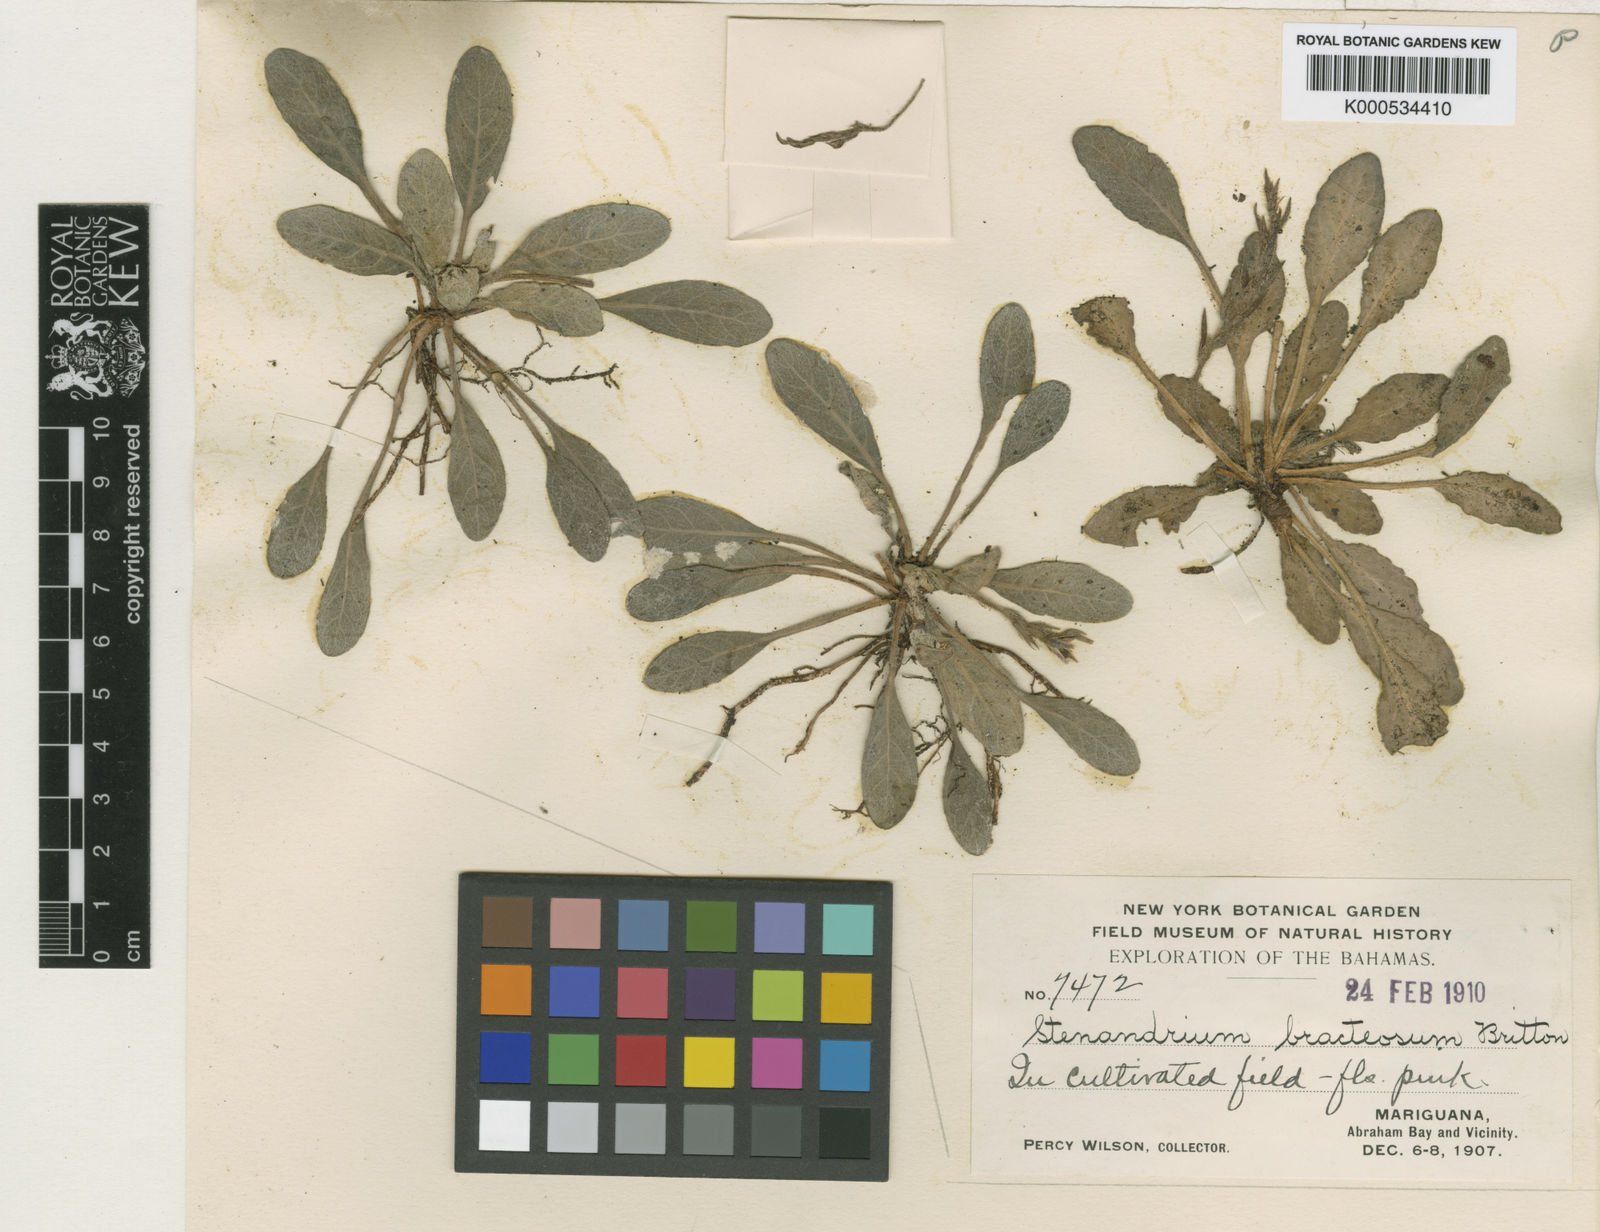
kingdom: Plantae
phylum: Tracheophyta
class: Magnoliopsida
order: Lamiales
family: Acanthaceae
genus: Stenandrium
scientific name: Stenandrium bracteosum
